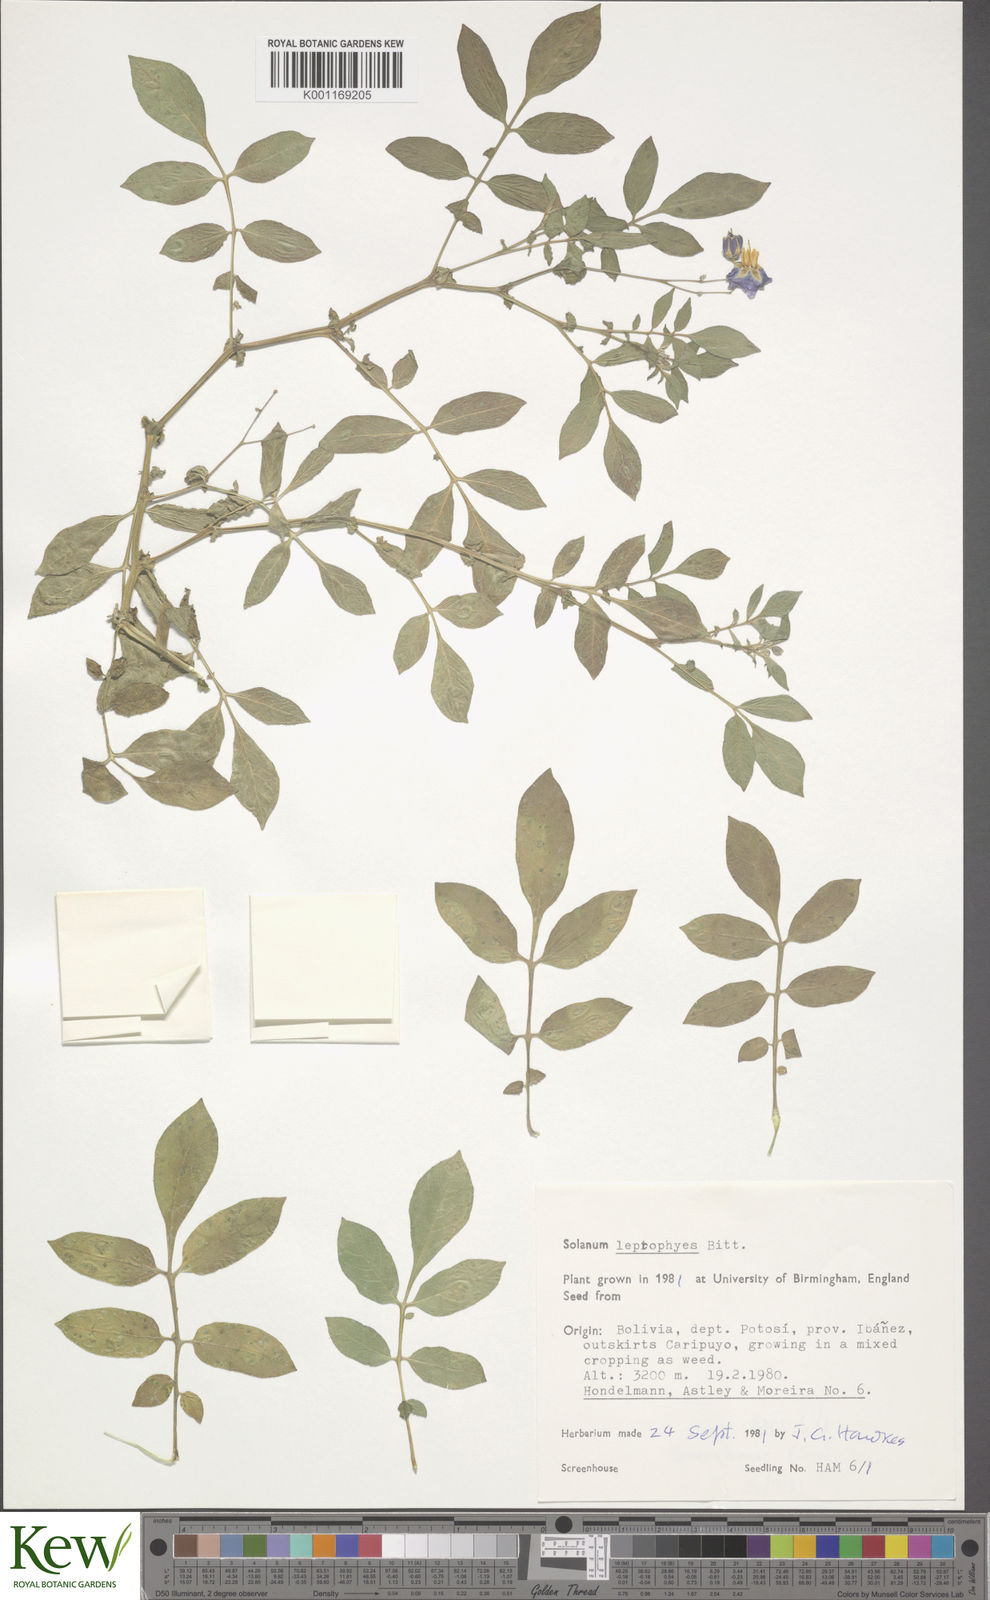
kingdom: Plantae
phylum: Tracheophyta
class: Magnoliopsida
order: Solanales
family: Solanaceae
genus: Solanum
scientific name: Solanum brevicaule
